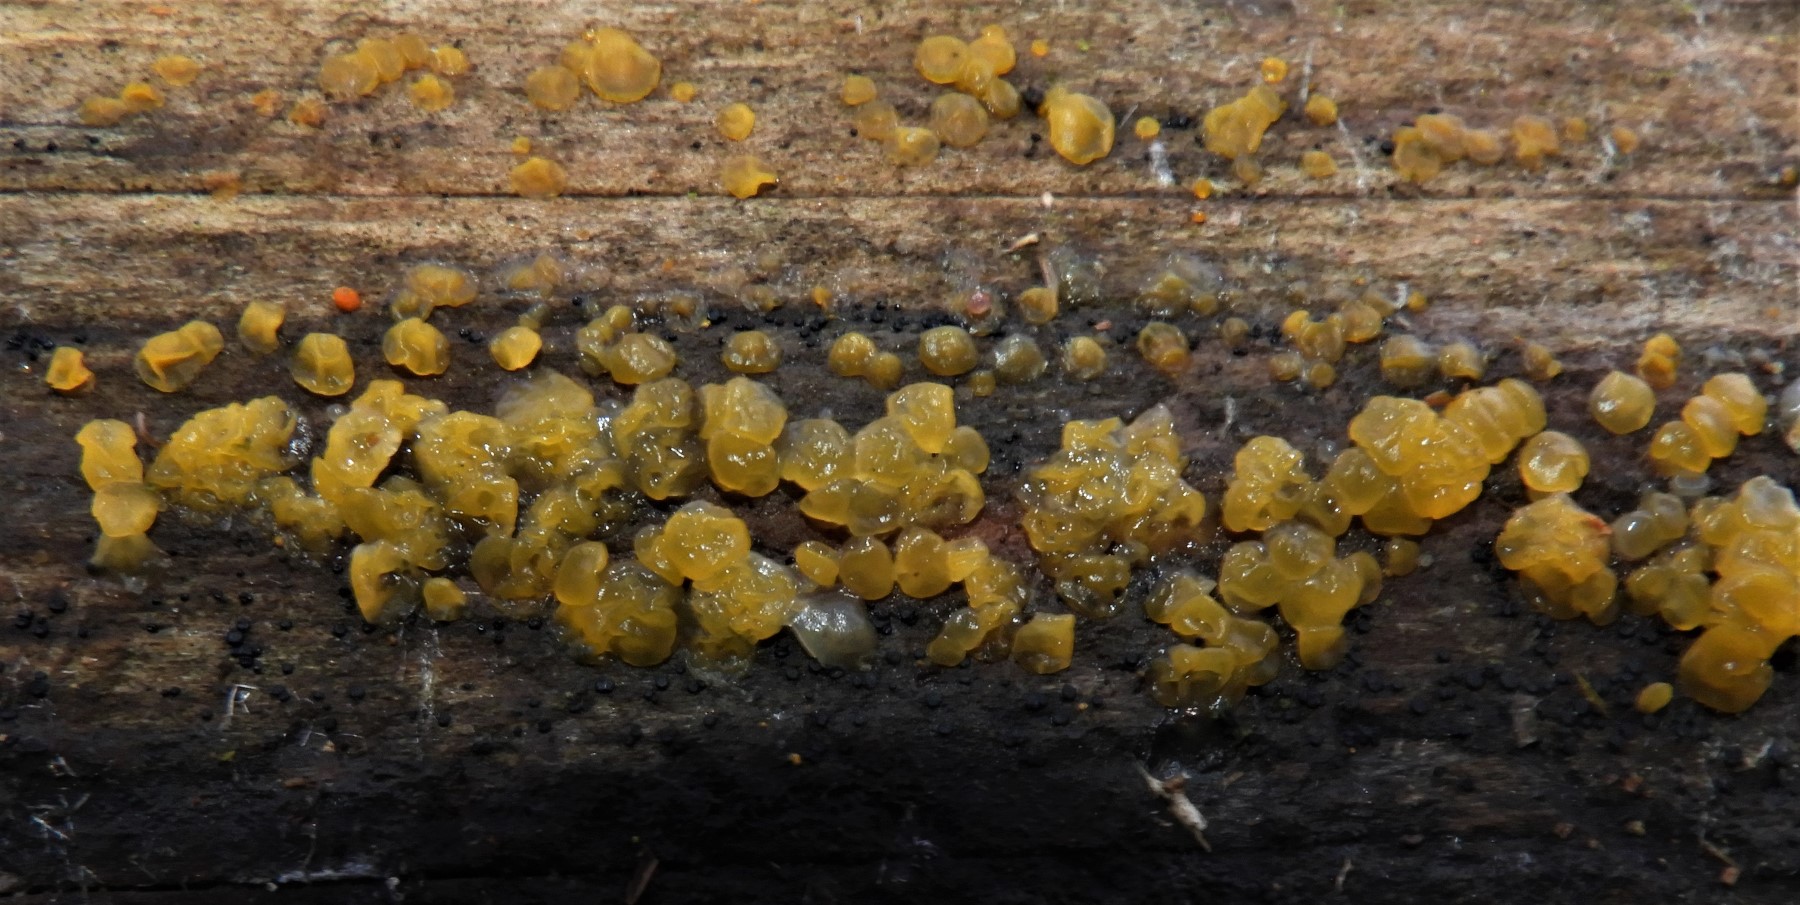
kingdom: Fungi
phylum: Basidiomycota
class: Dacrymycetes
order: Dacrymycetales
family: Dacrymycetaceae
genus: Dacrymyces
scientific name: Dacrymyces stillatus
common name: almindelig tåresvamp
